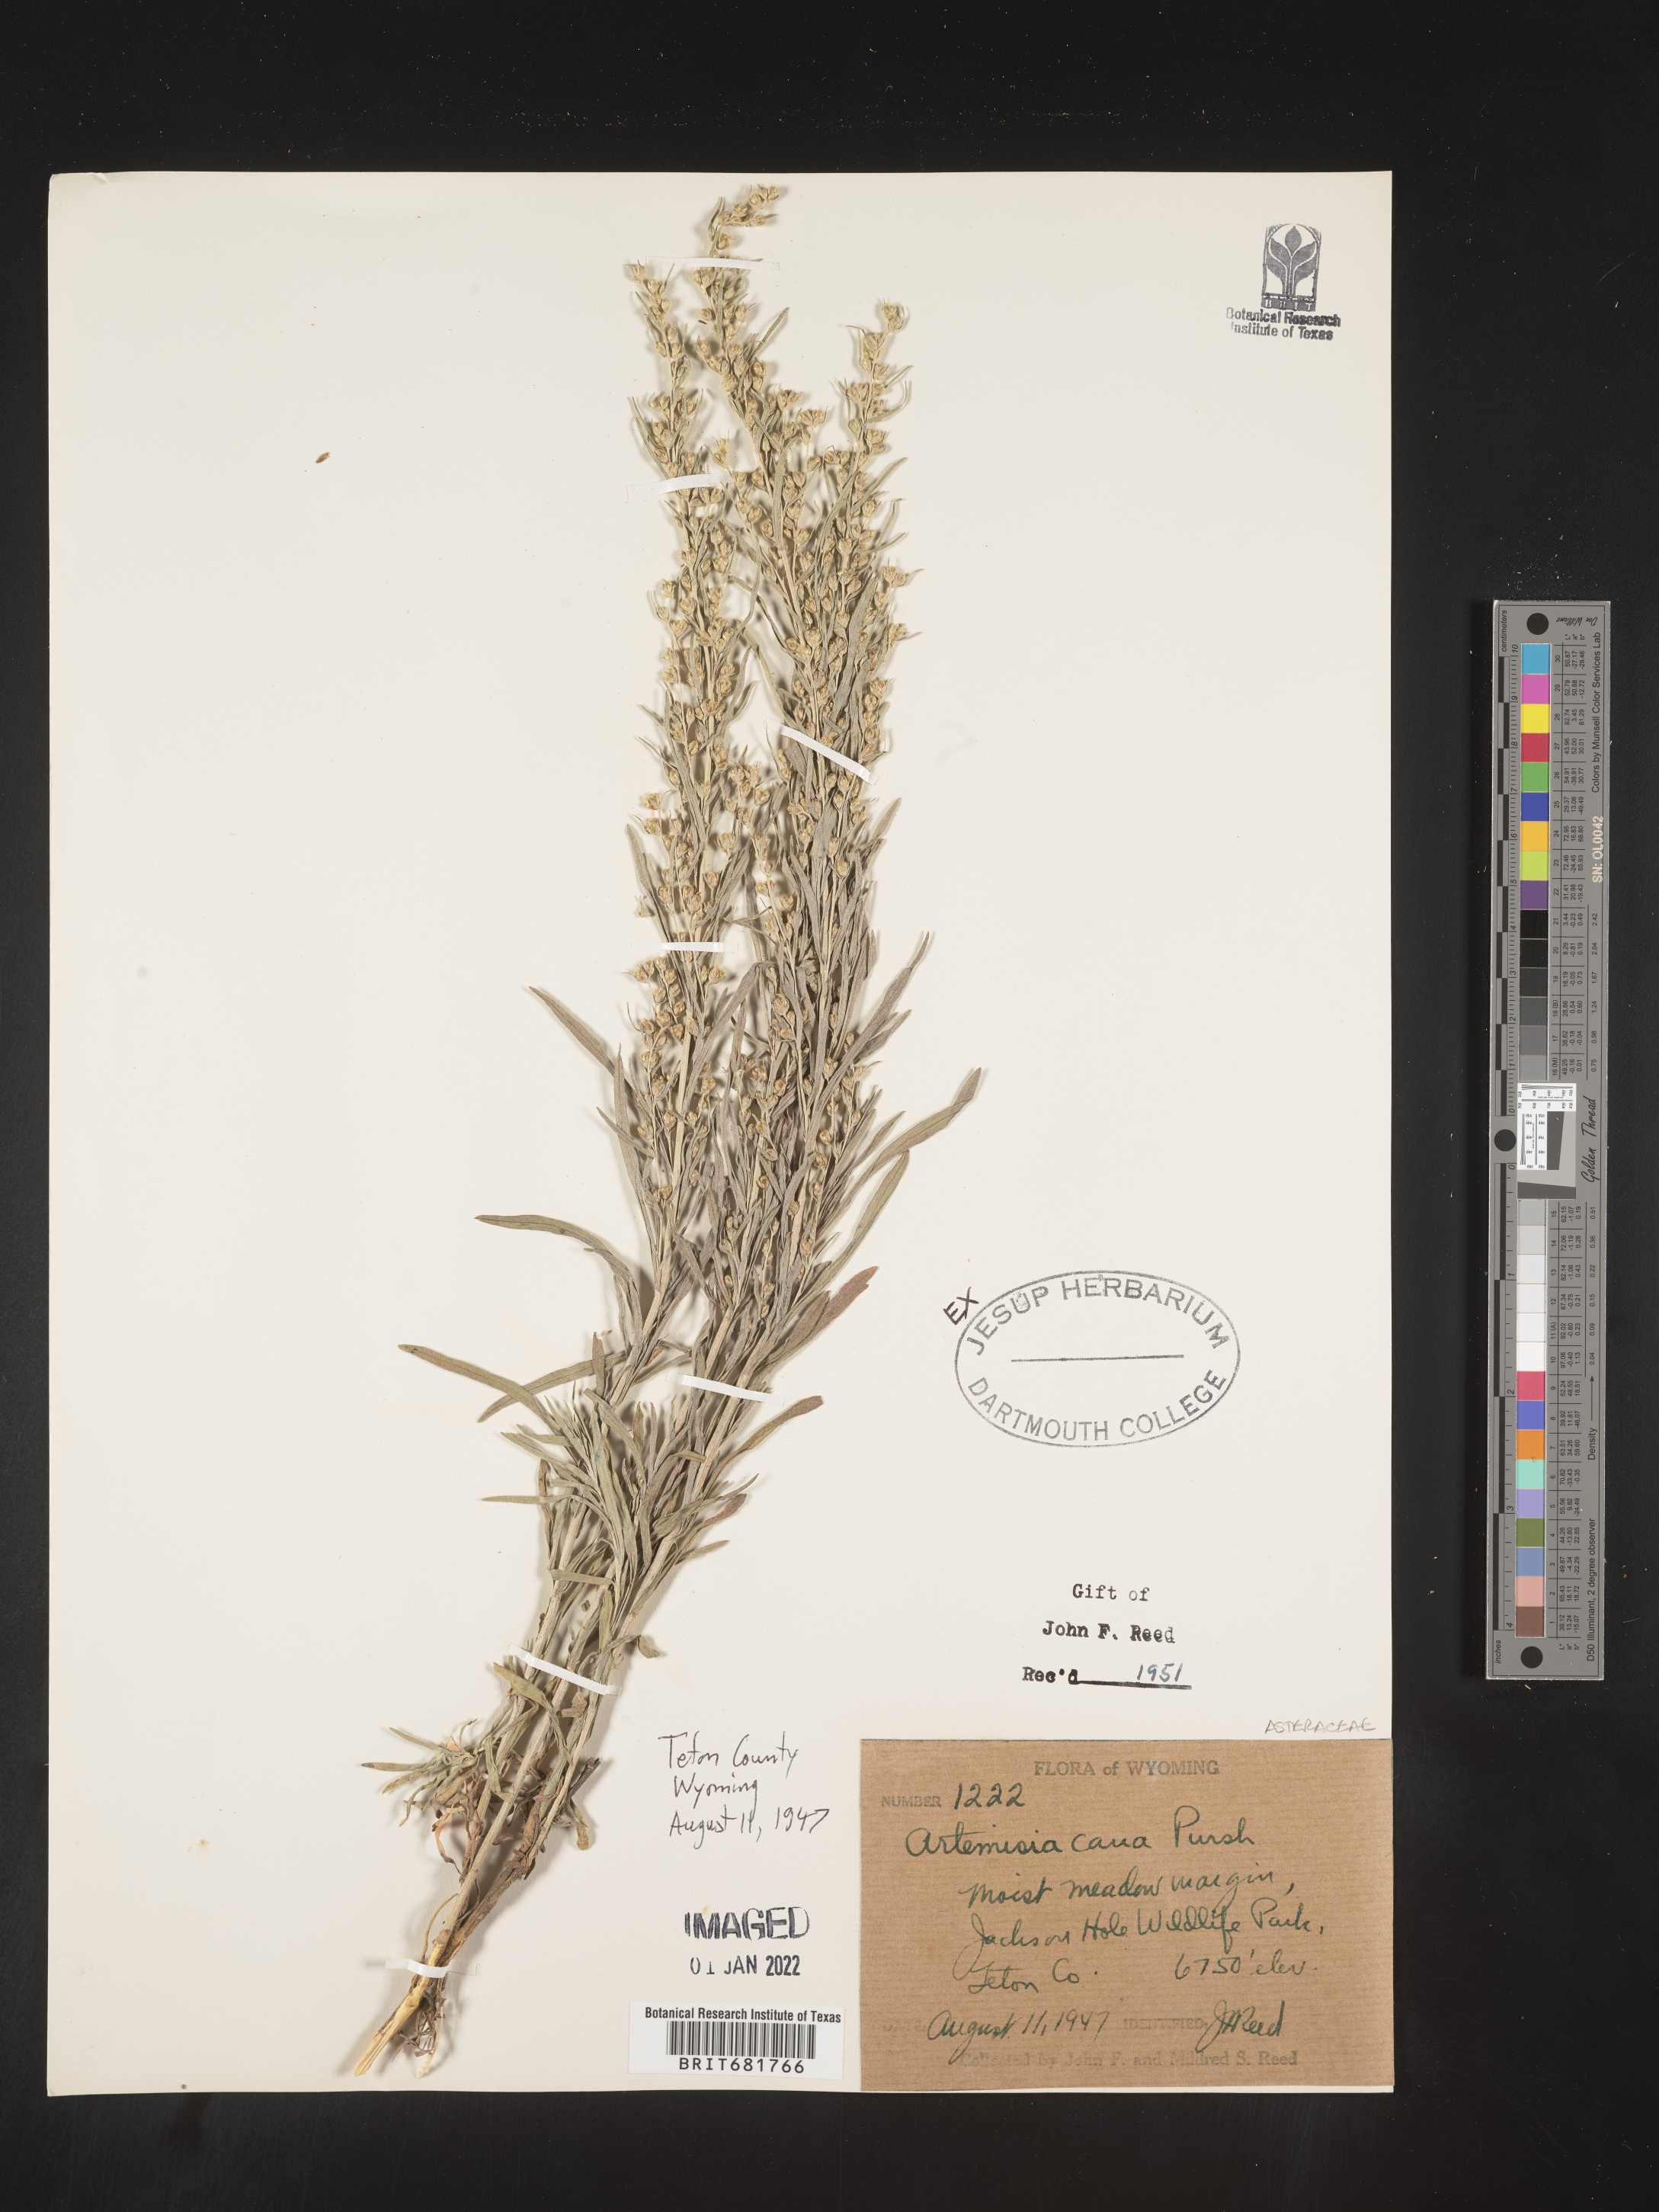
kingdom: Plantae
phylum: Tracheophyta
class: Magnoliopsida
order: Asterales
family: Asteraceae
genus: Artemisia
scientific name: Artemisia cana
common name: Silver sagebrush
